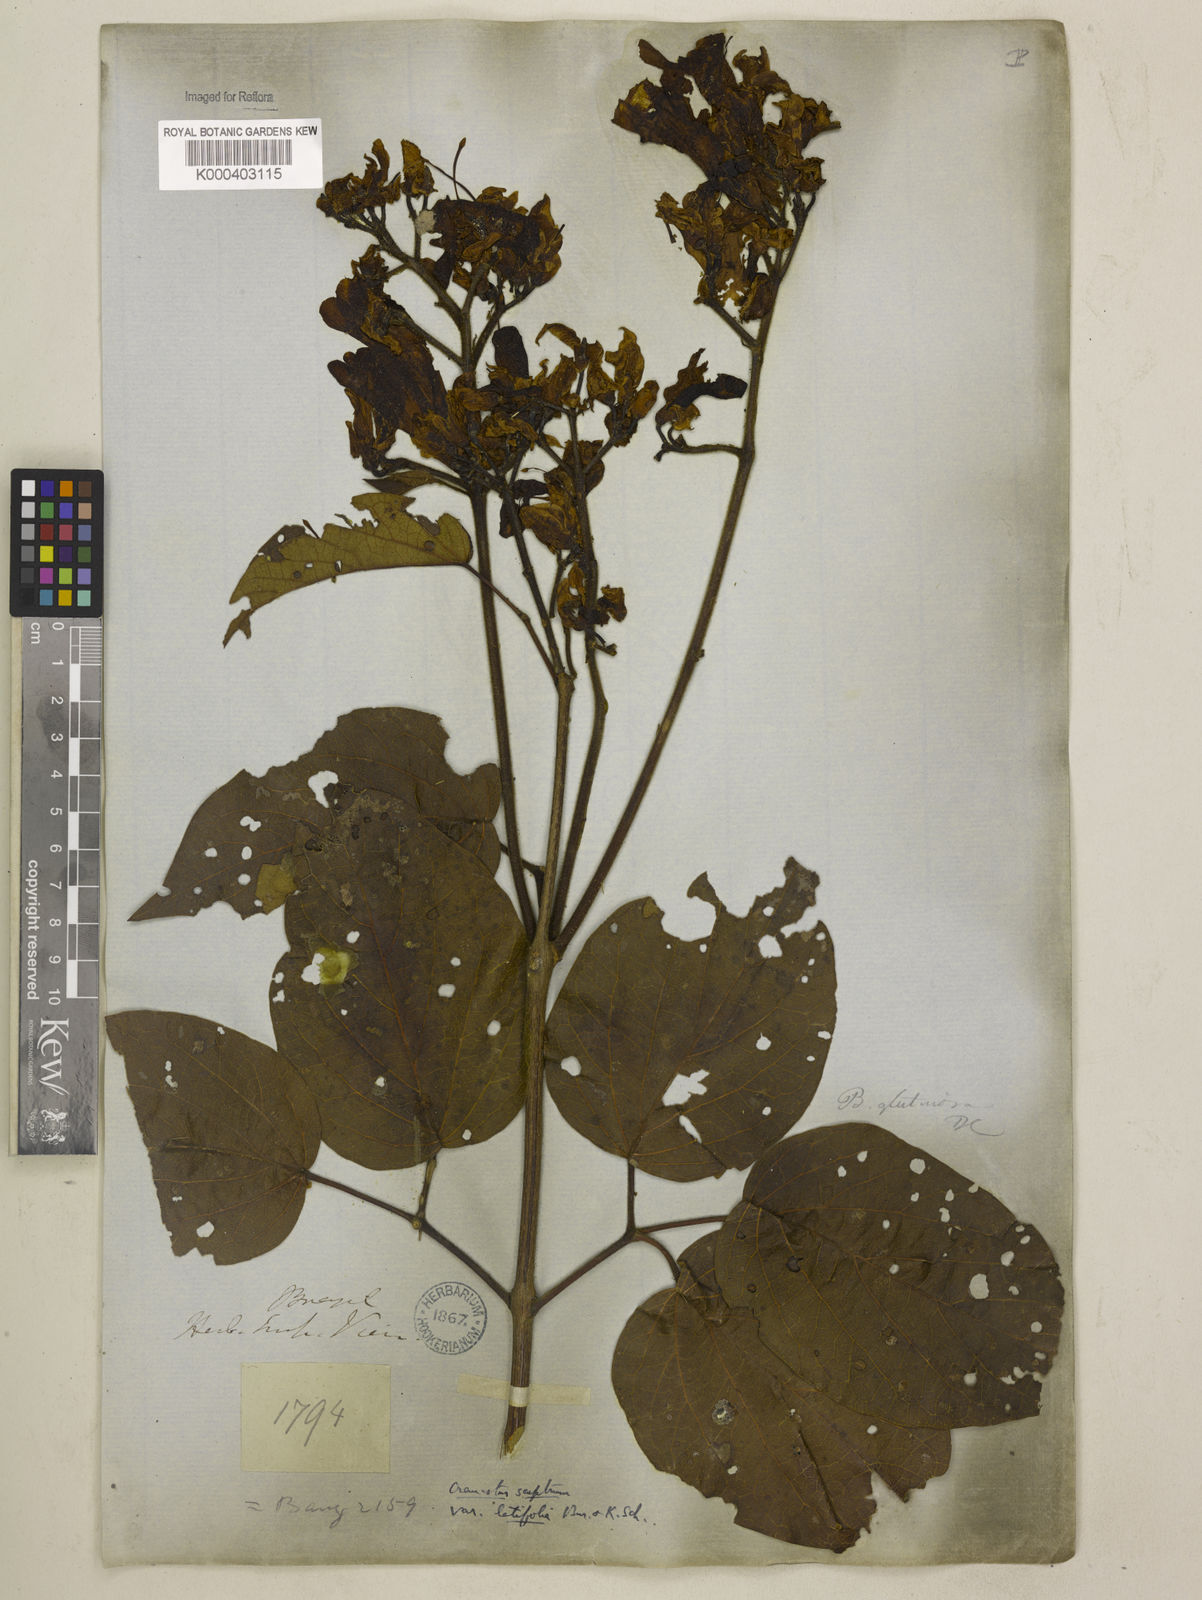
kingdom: Plantae
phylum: Tracheophyta
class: Magnoliopsida
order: Lamiales
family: Bignoniaceae
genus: Cuspidaria
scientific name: Cuspidaria sceptrum
